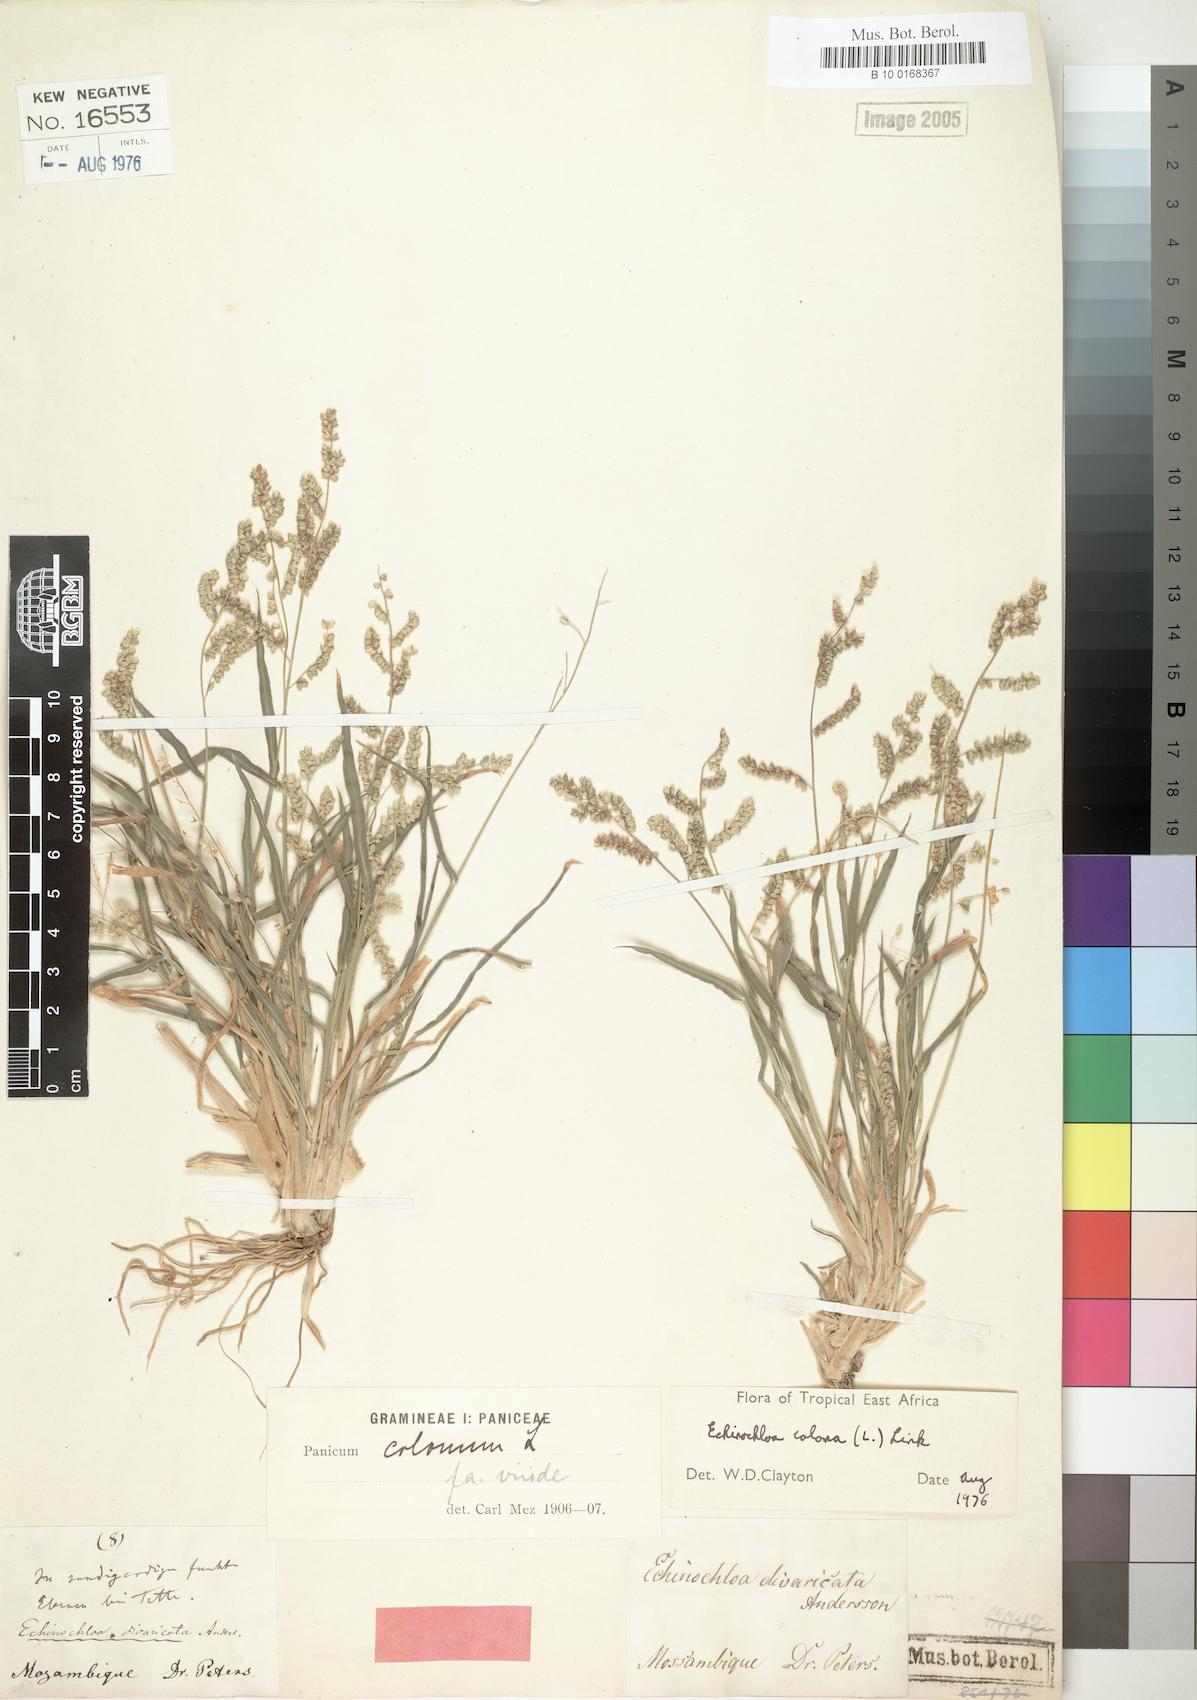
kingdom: Plantae
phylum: Tracheophyta
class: Liliopsida
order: Poales
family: Poaceae
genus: Echinochloa
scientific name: Echinochloa colonum
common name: Jungle rice
